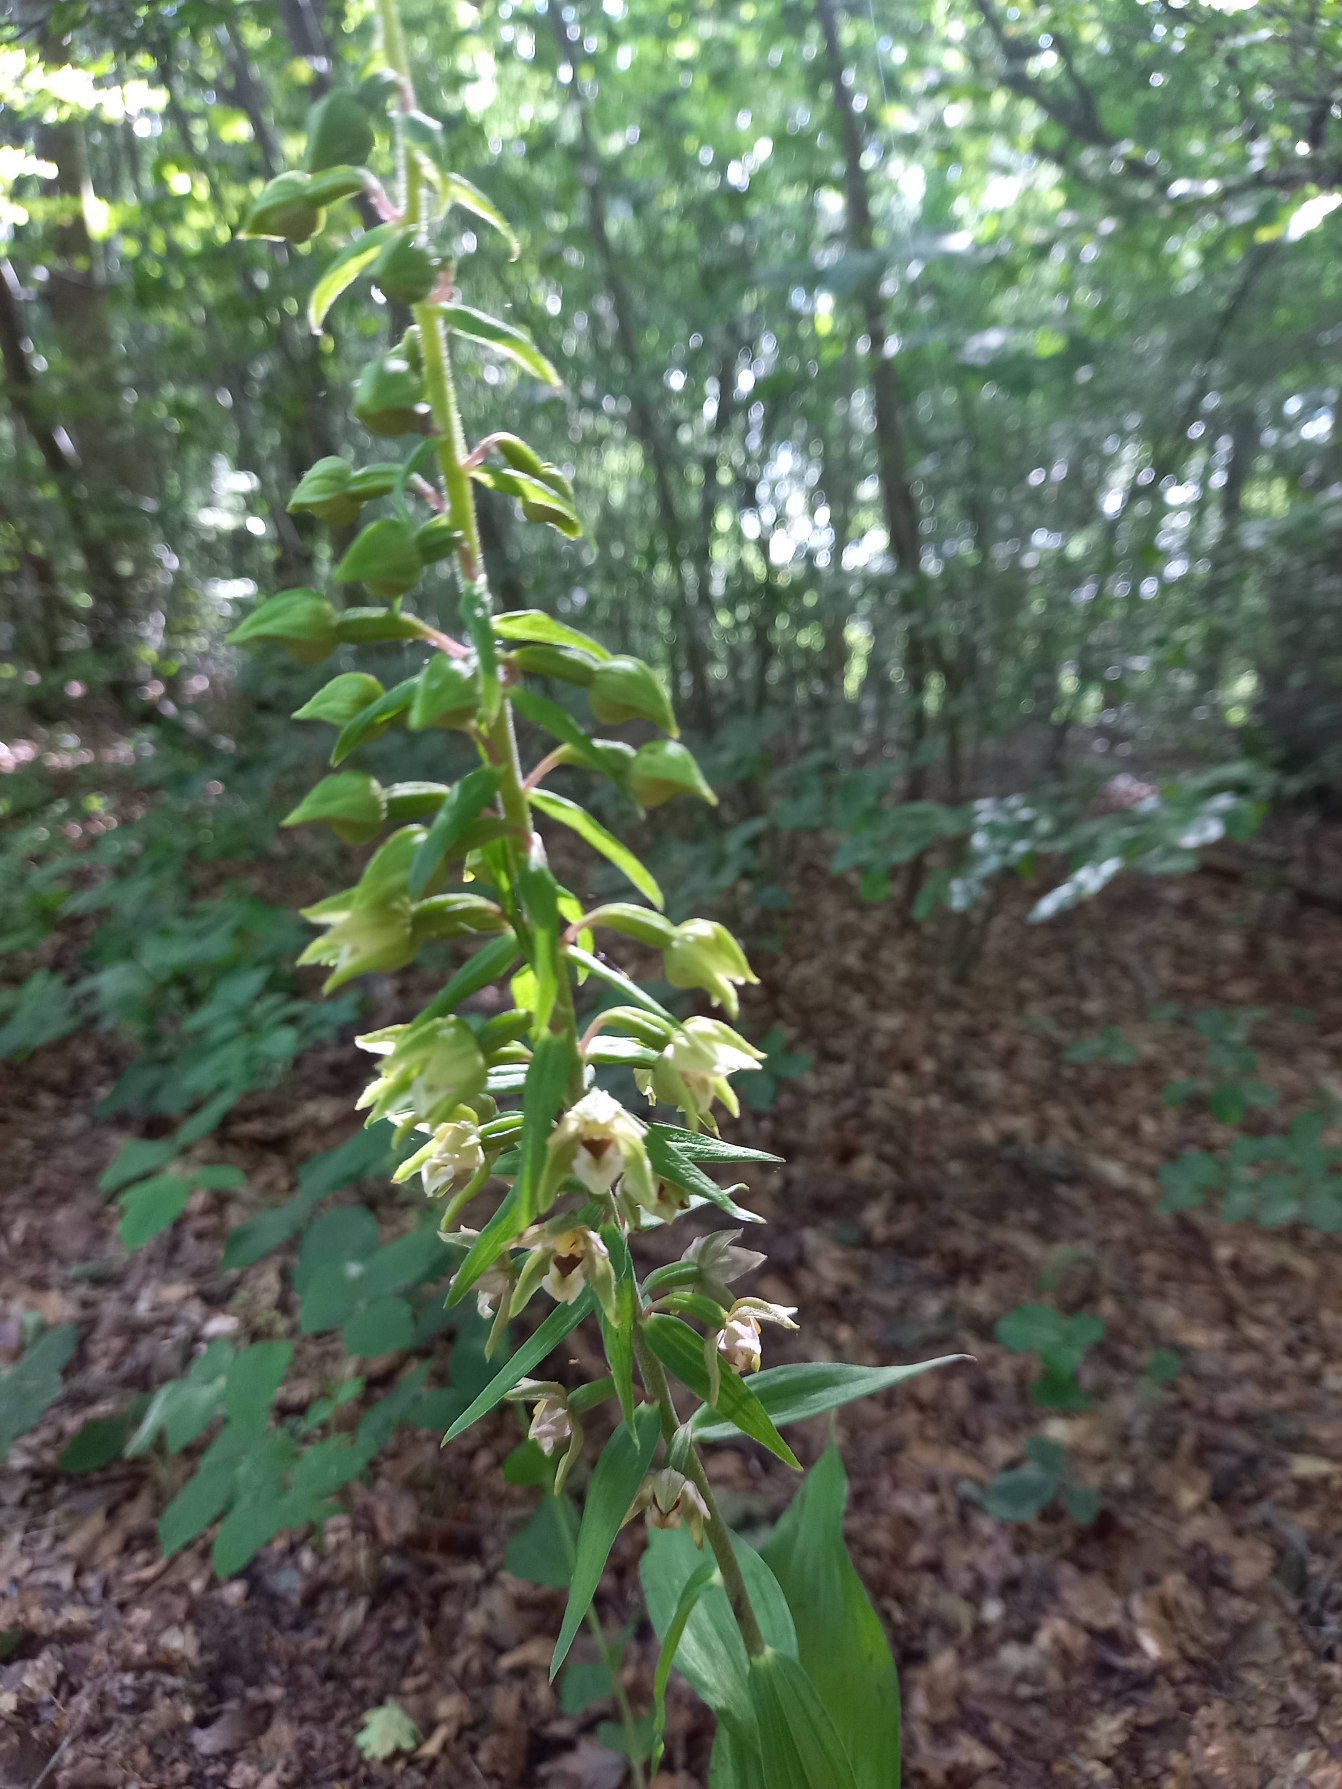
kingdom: Plantae
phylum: Tracheophyta
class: Liliopsida
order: Asparagales
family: Orchidaceae
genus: Epipactis
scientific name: Epipactis helleborine
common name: Skov-hullæbe
